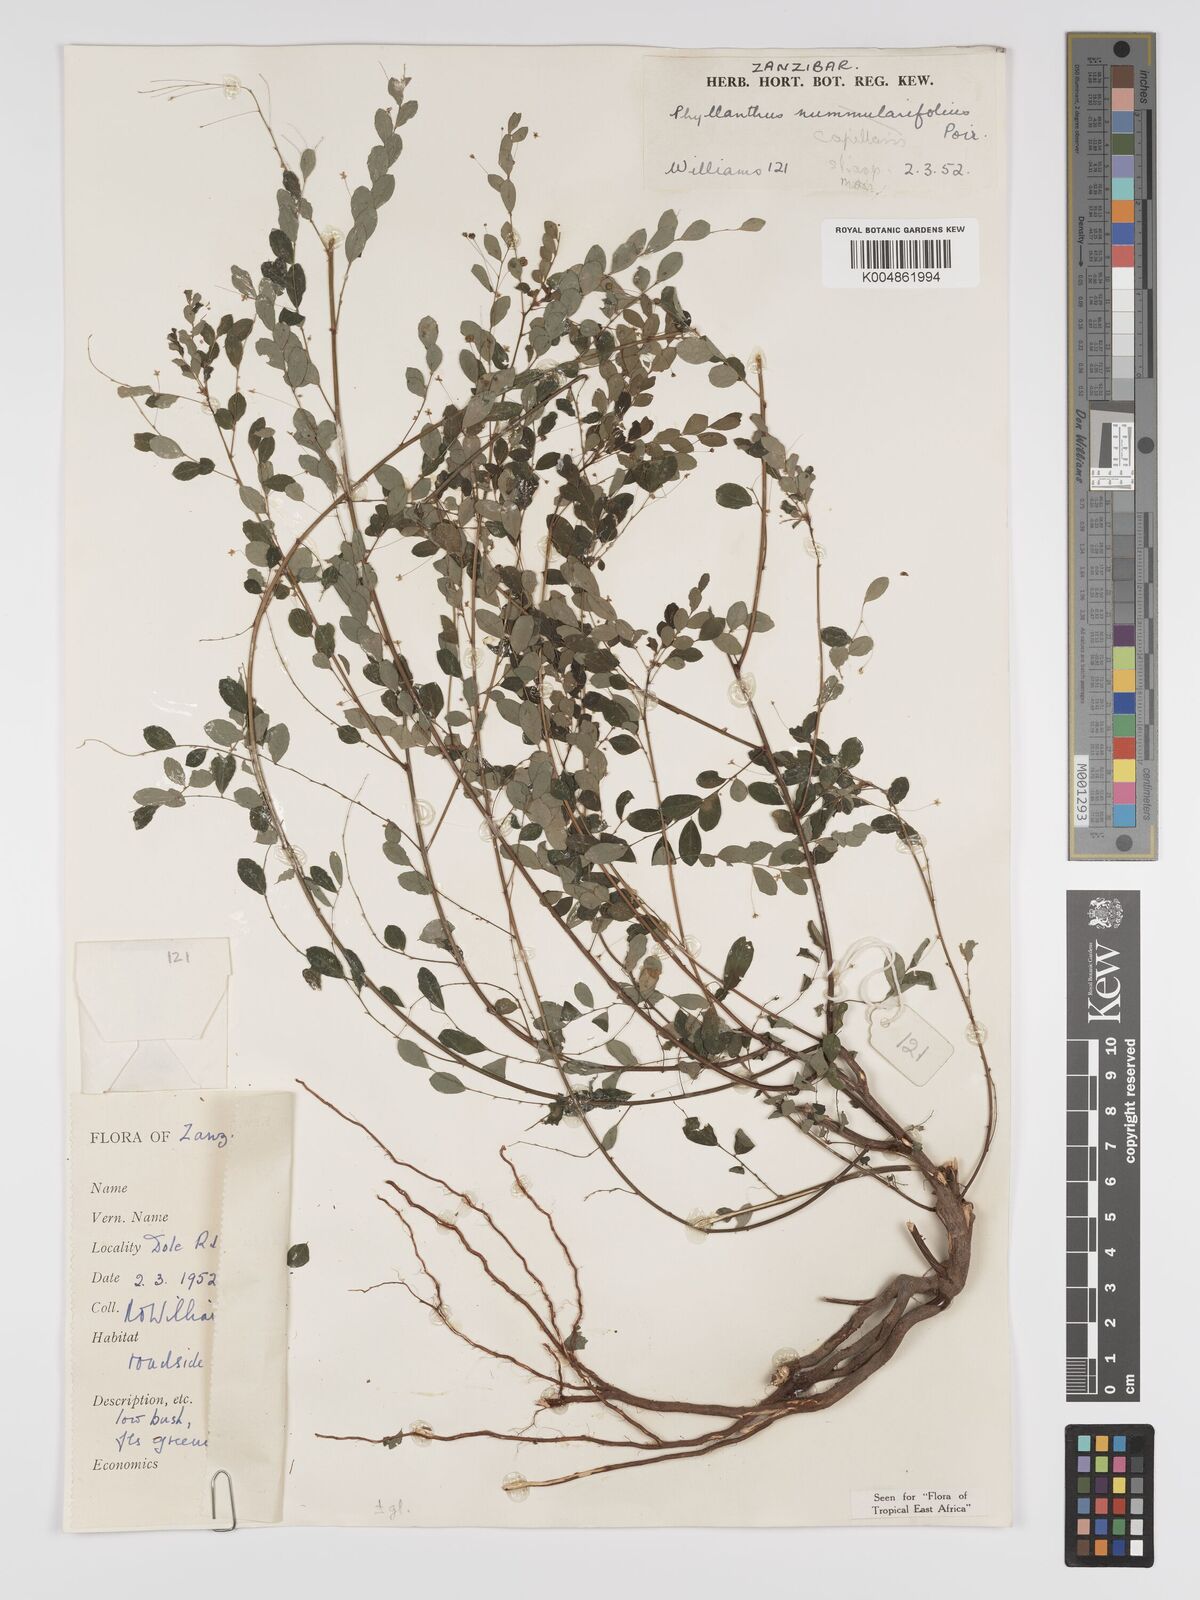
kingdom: Plantae
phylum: Tracheophyta
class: Magnoliopsida
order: Malpighiales
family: Phyllanthaceae
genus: Phyllanthus
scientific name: Phyllanthus nummulariifolius
